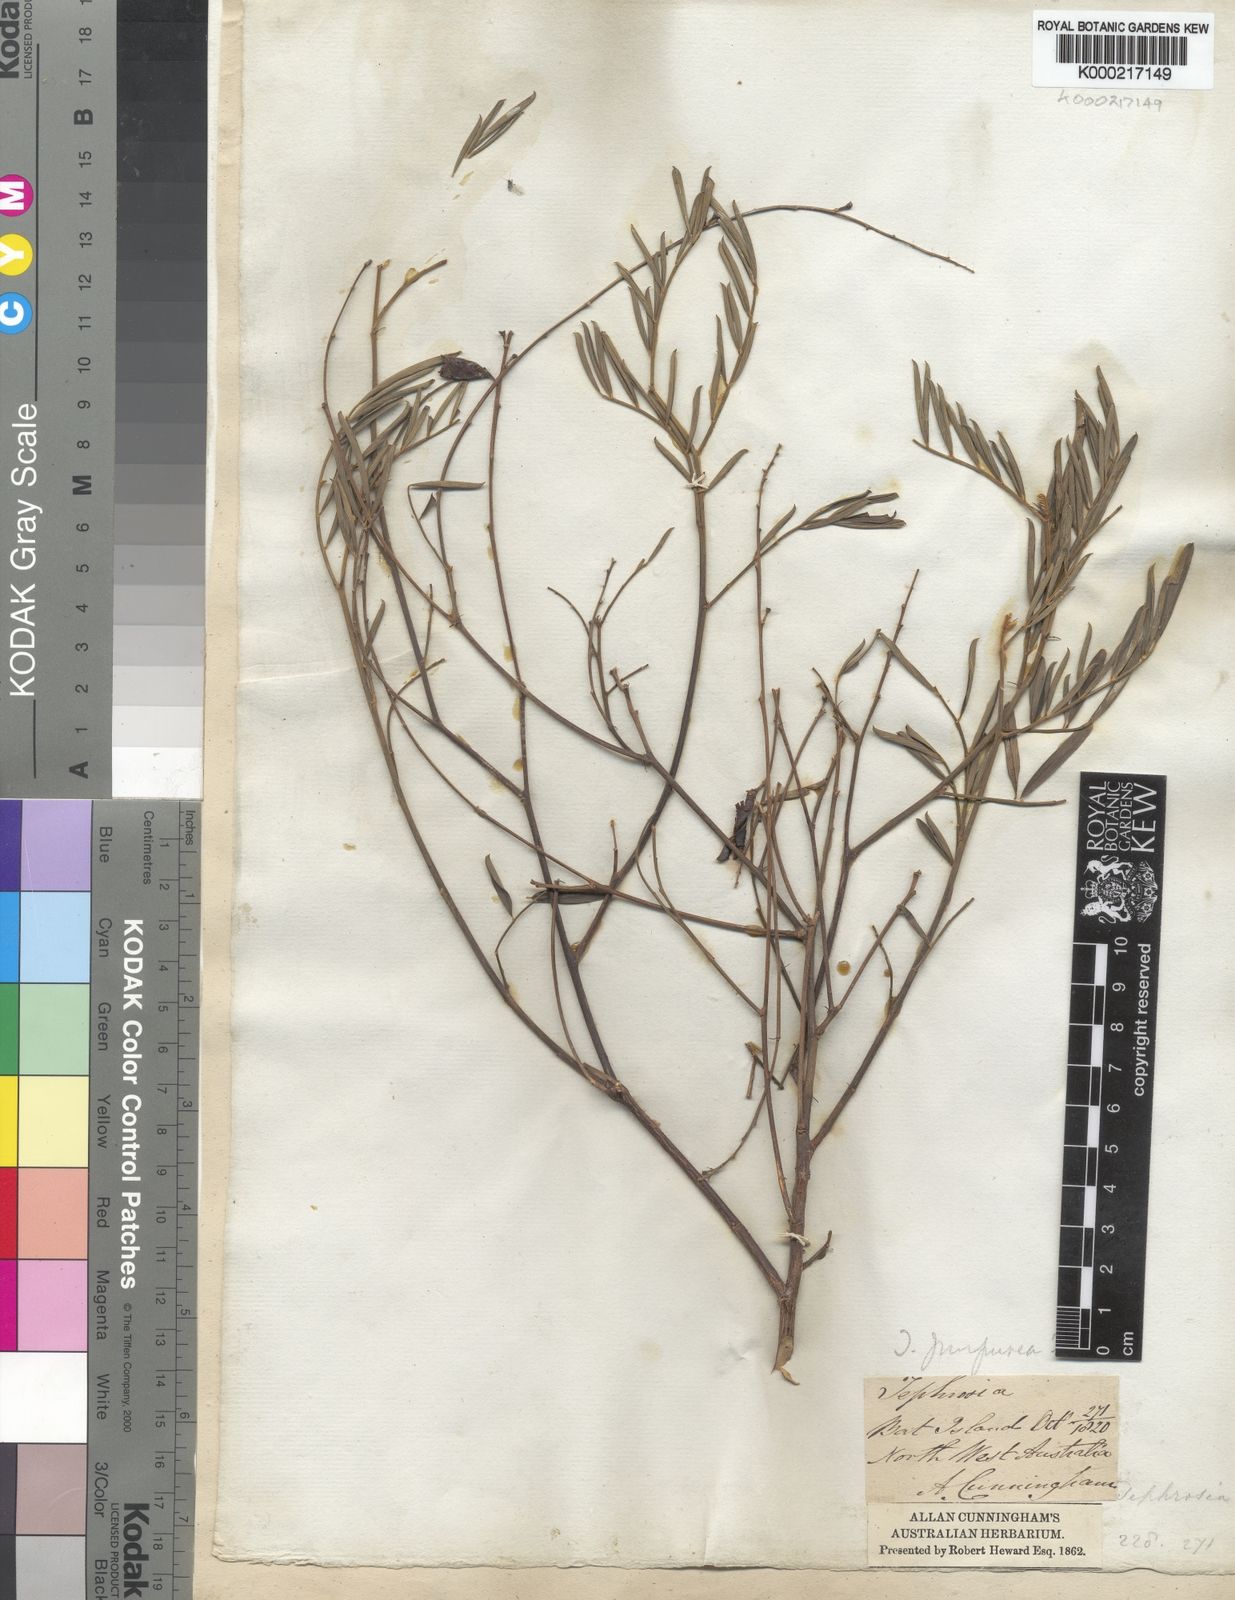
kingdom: Plantae
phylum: Tracheophyta
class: Magnoliopsida
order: Fabales
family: Fabaceae
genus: Tephrosia
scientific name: Tephrosia purpurea
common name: Fishpoison
